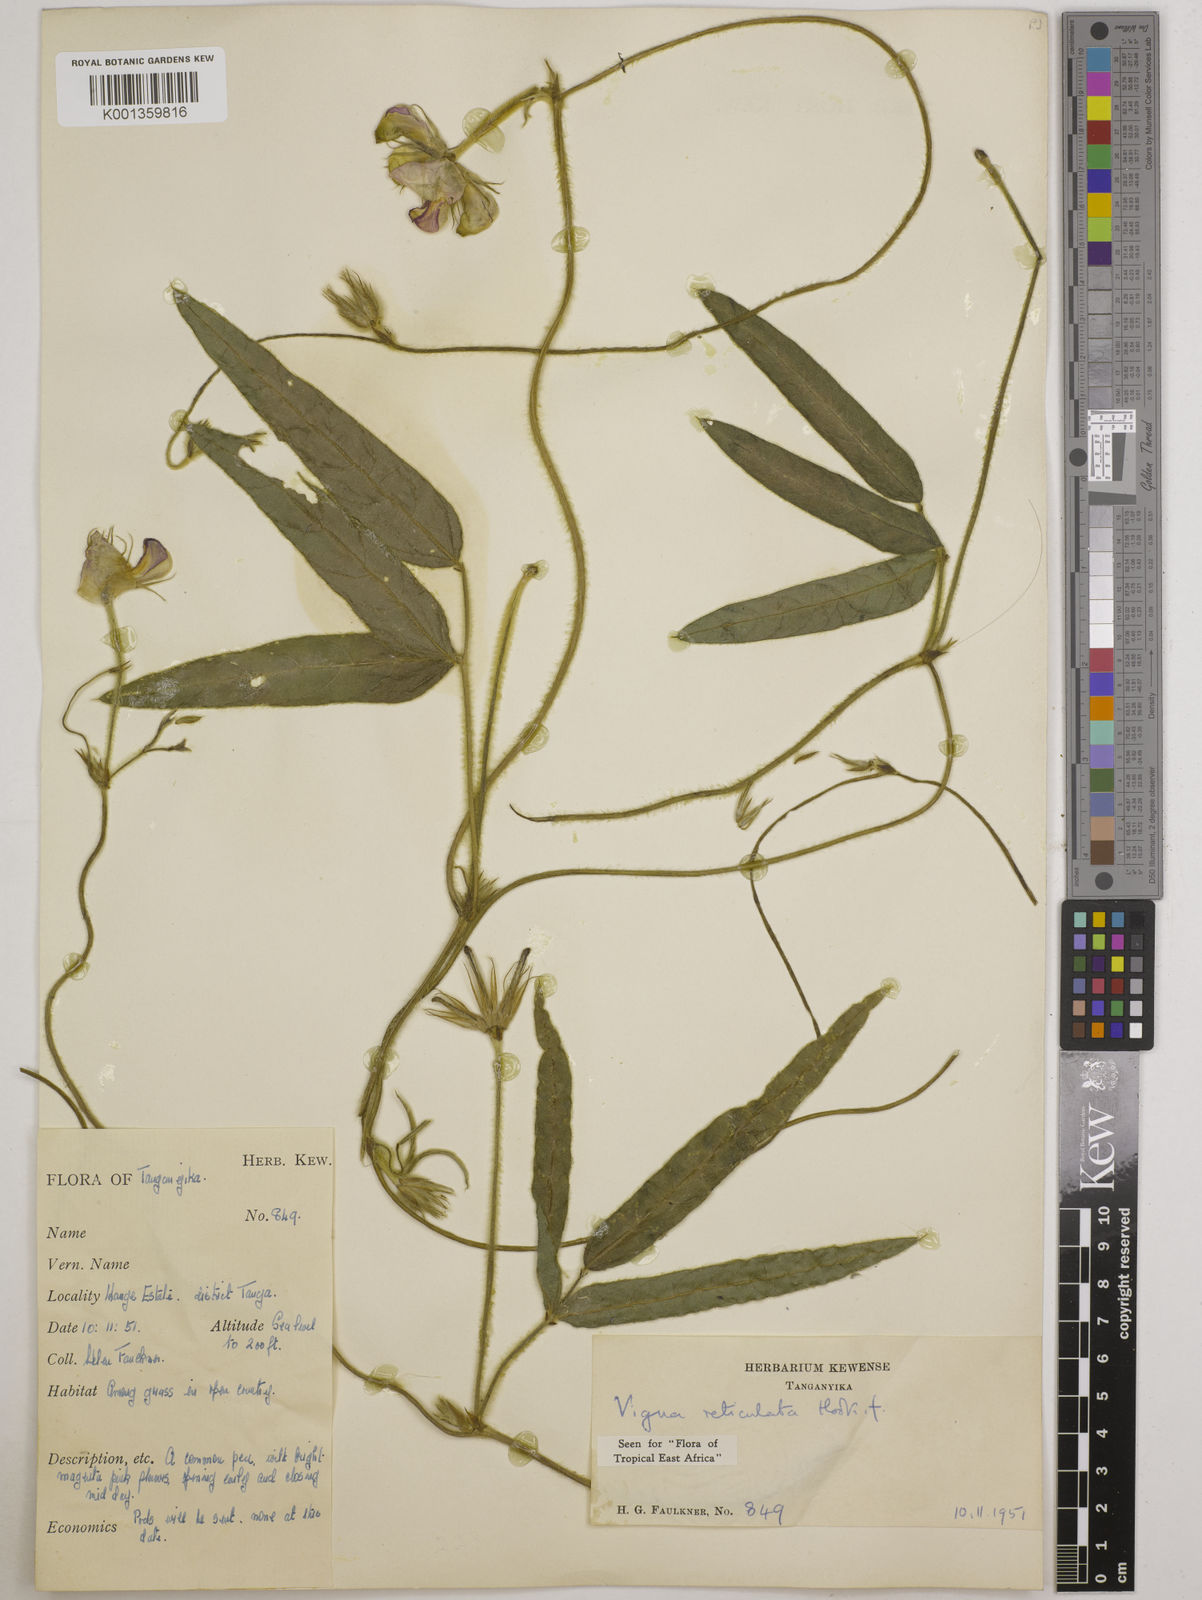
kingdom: Plantae
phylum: Tracheophyta
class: Magnoliopsida
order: Fabales
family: Fabaceae
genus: Vigna
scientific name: Vigna reticulata
